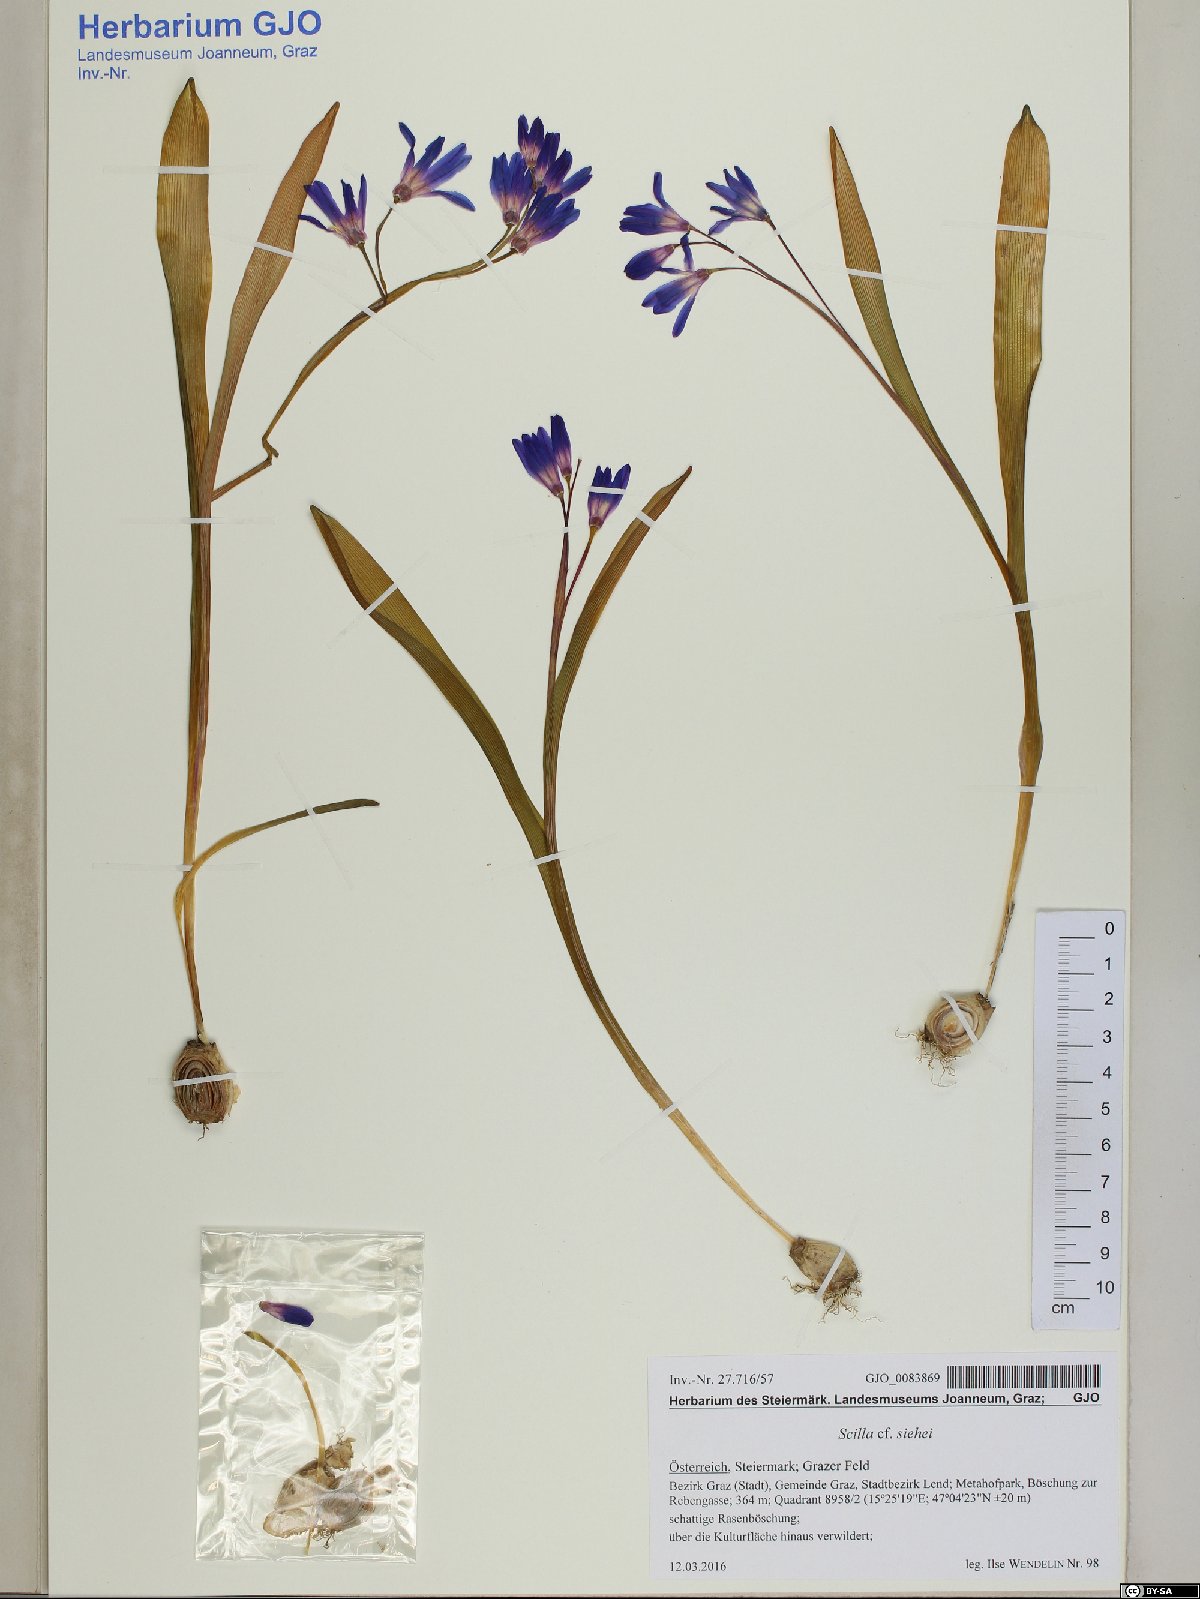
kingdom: Plantae
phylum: Tracheophyta
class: Liliopsida
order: Asparagales
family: Asparagaceae
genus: Scilla
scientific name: Scilla forbesii
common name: Glory-of-the-snow
